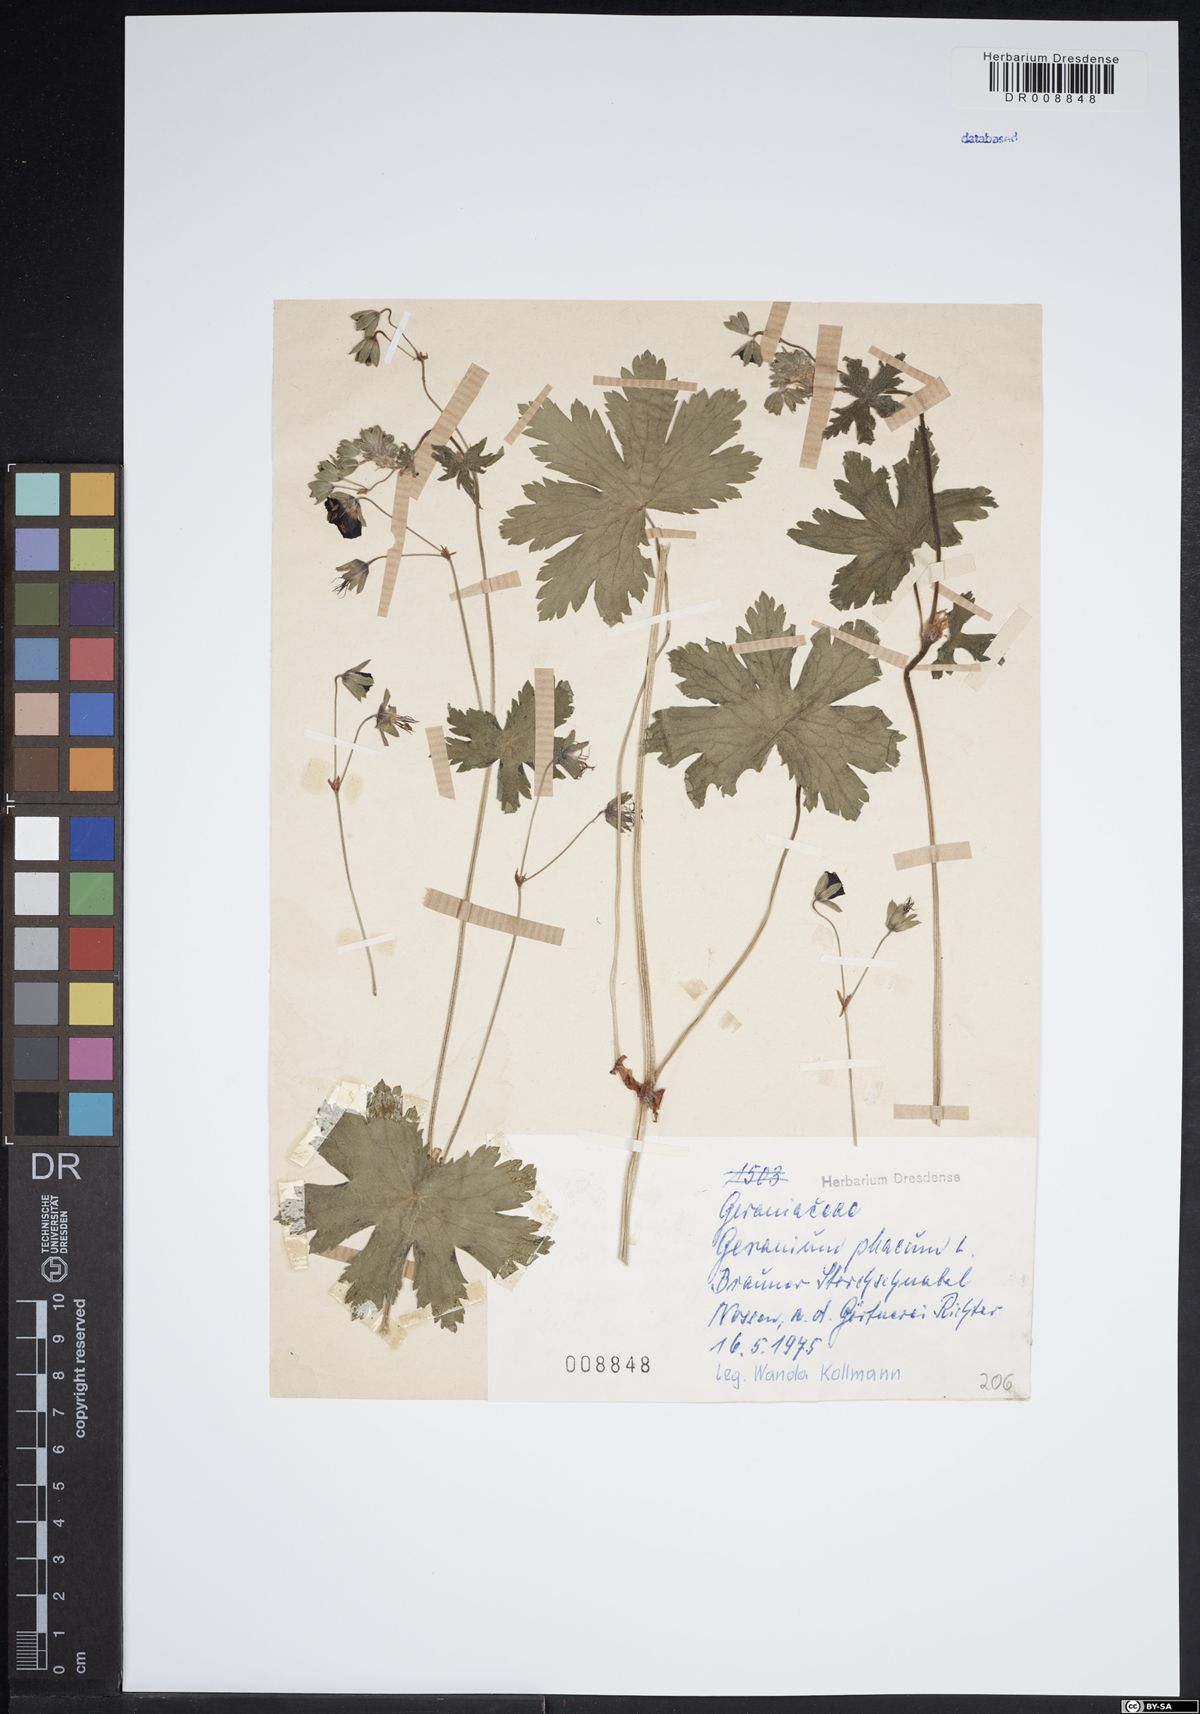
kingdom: Plantae
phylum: Tracheophyta
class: Magnoliopsida
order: Geraniales
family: Geraniaceae
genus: Geranium
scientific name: Geranium phaeum
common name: Dusky crane's-bill
